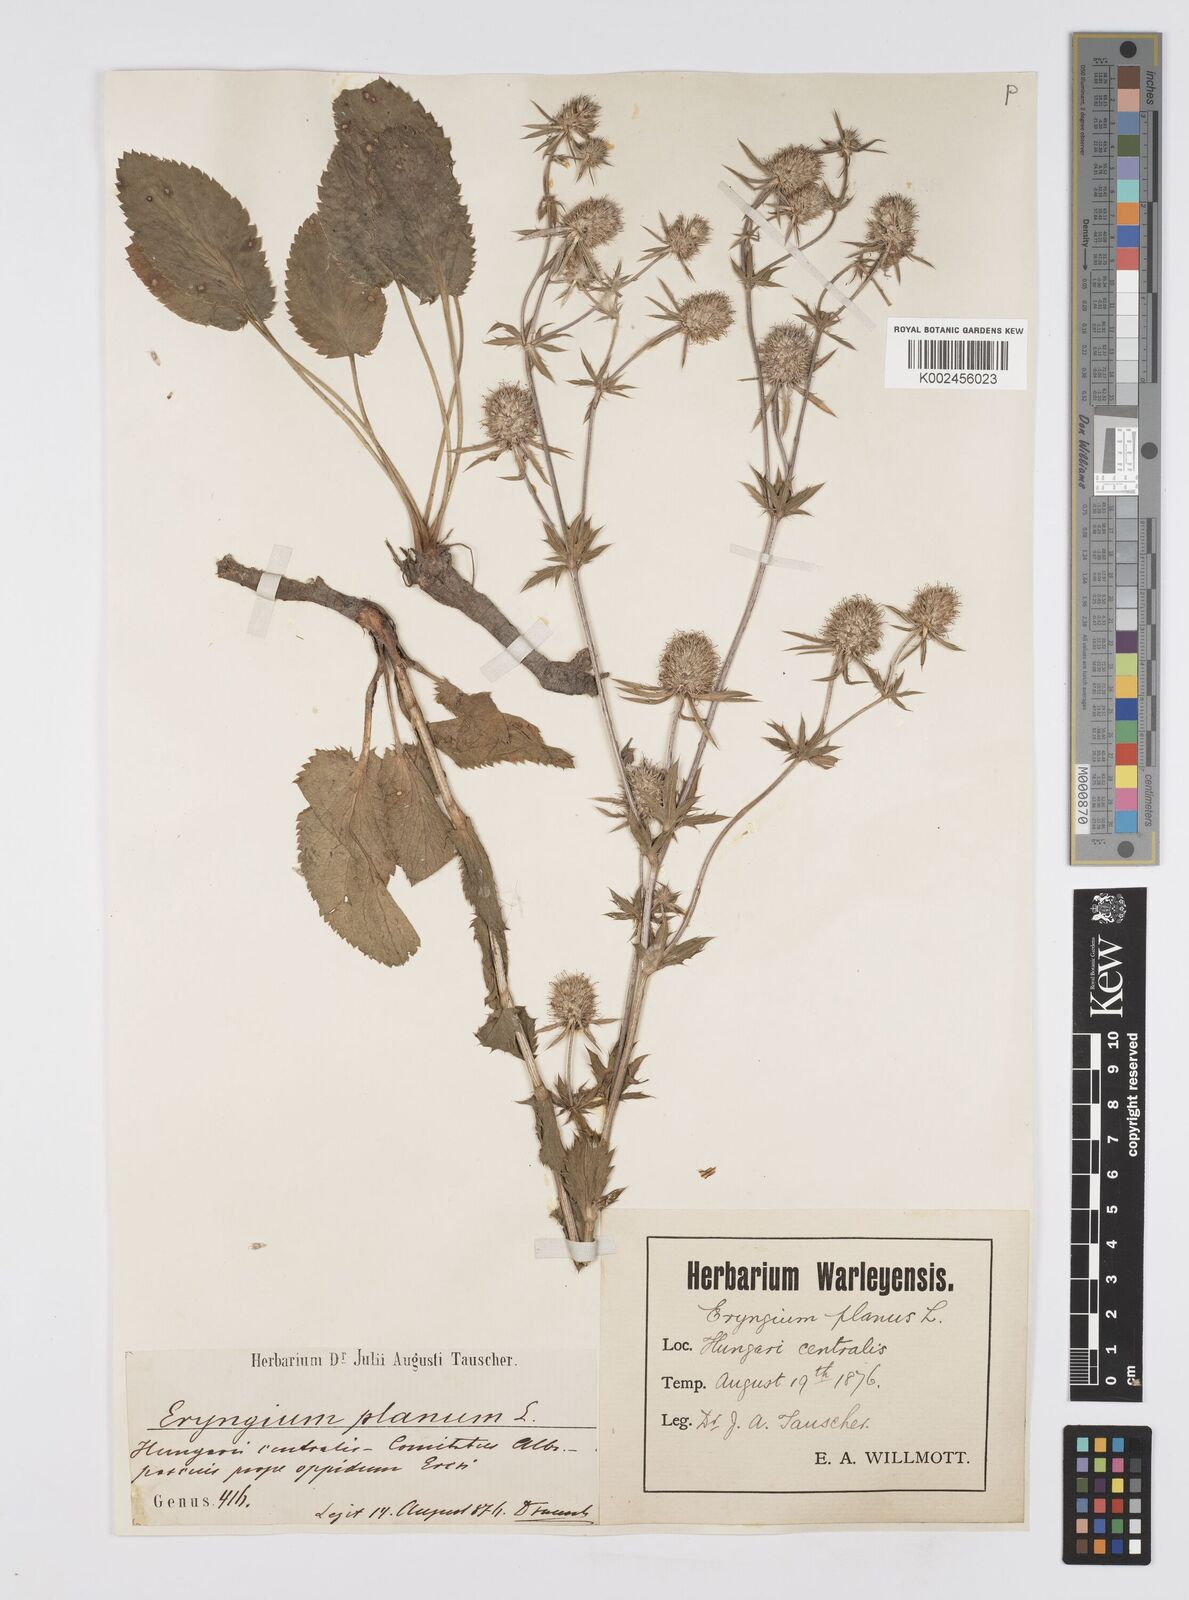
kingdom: Plantae
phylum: Tracheophyta
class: Magnoliopsida
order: Apiales
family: Apiaceae
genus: Eryngium
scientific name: Eryngium planum
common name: Blue eryngo
